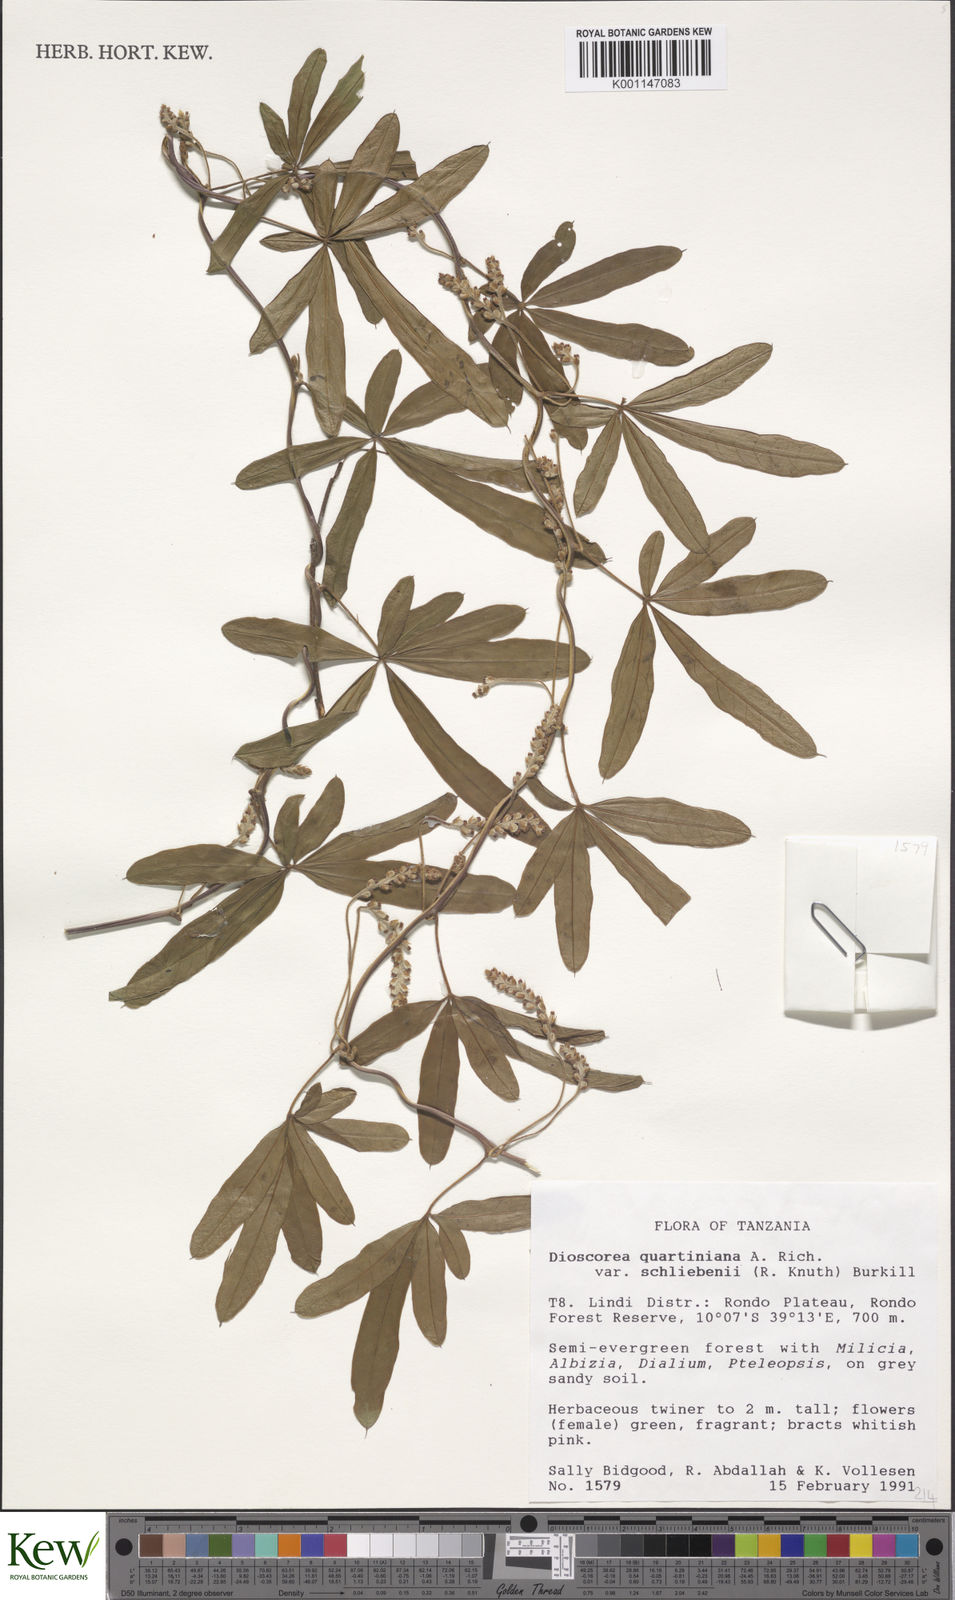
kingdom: Plantae
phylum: Tracheophyta
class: Liliopsida
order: Dioscoreales
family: Dioscoreaceae
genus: Dioscorea
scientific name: Dioscorea quartiniana
